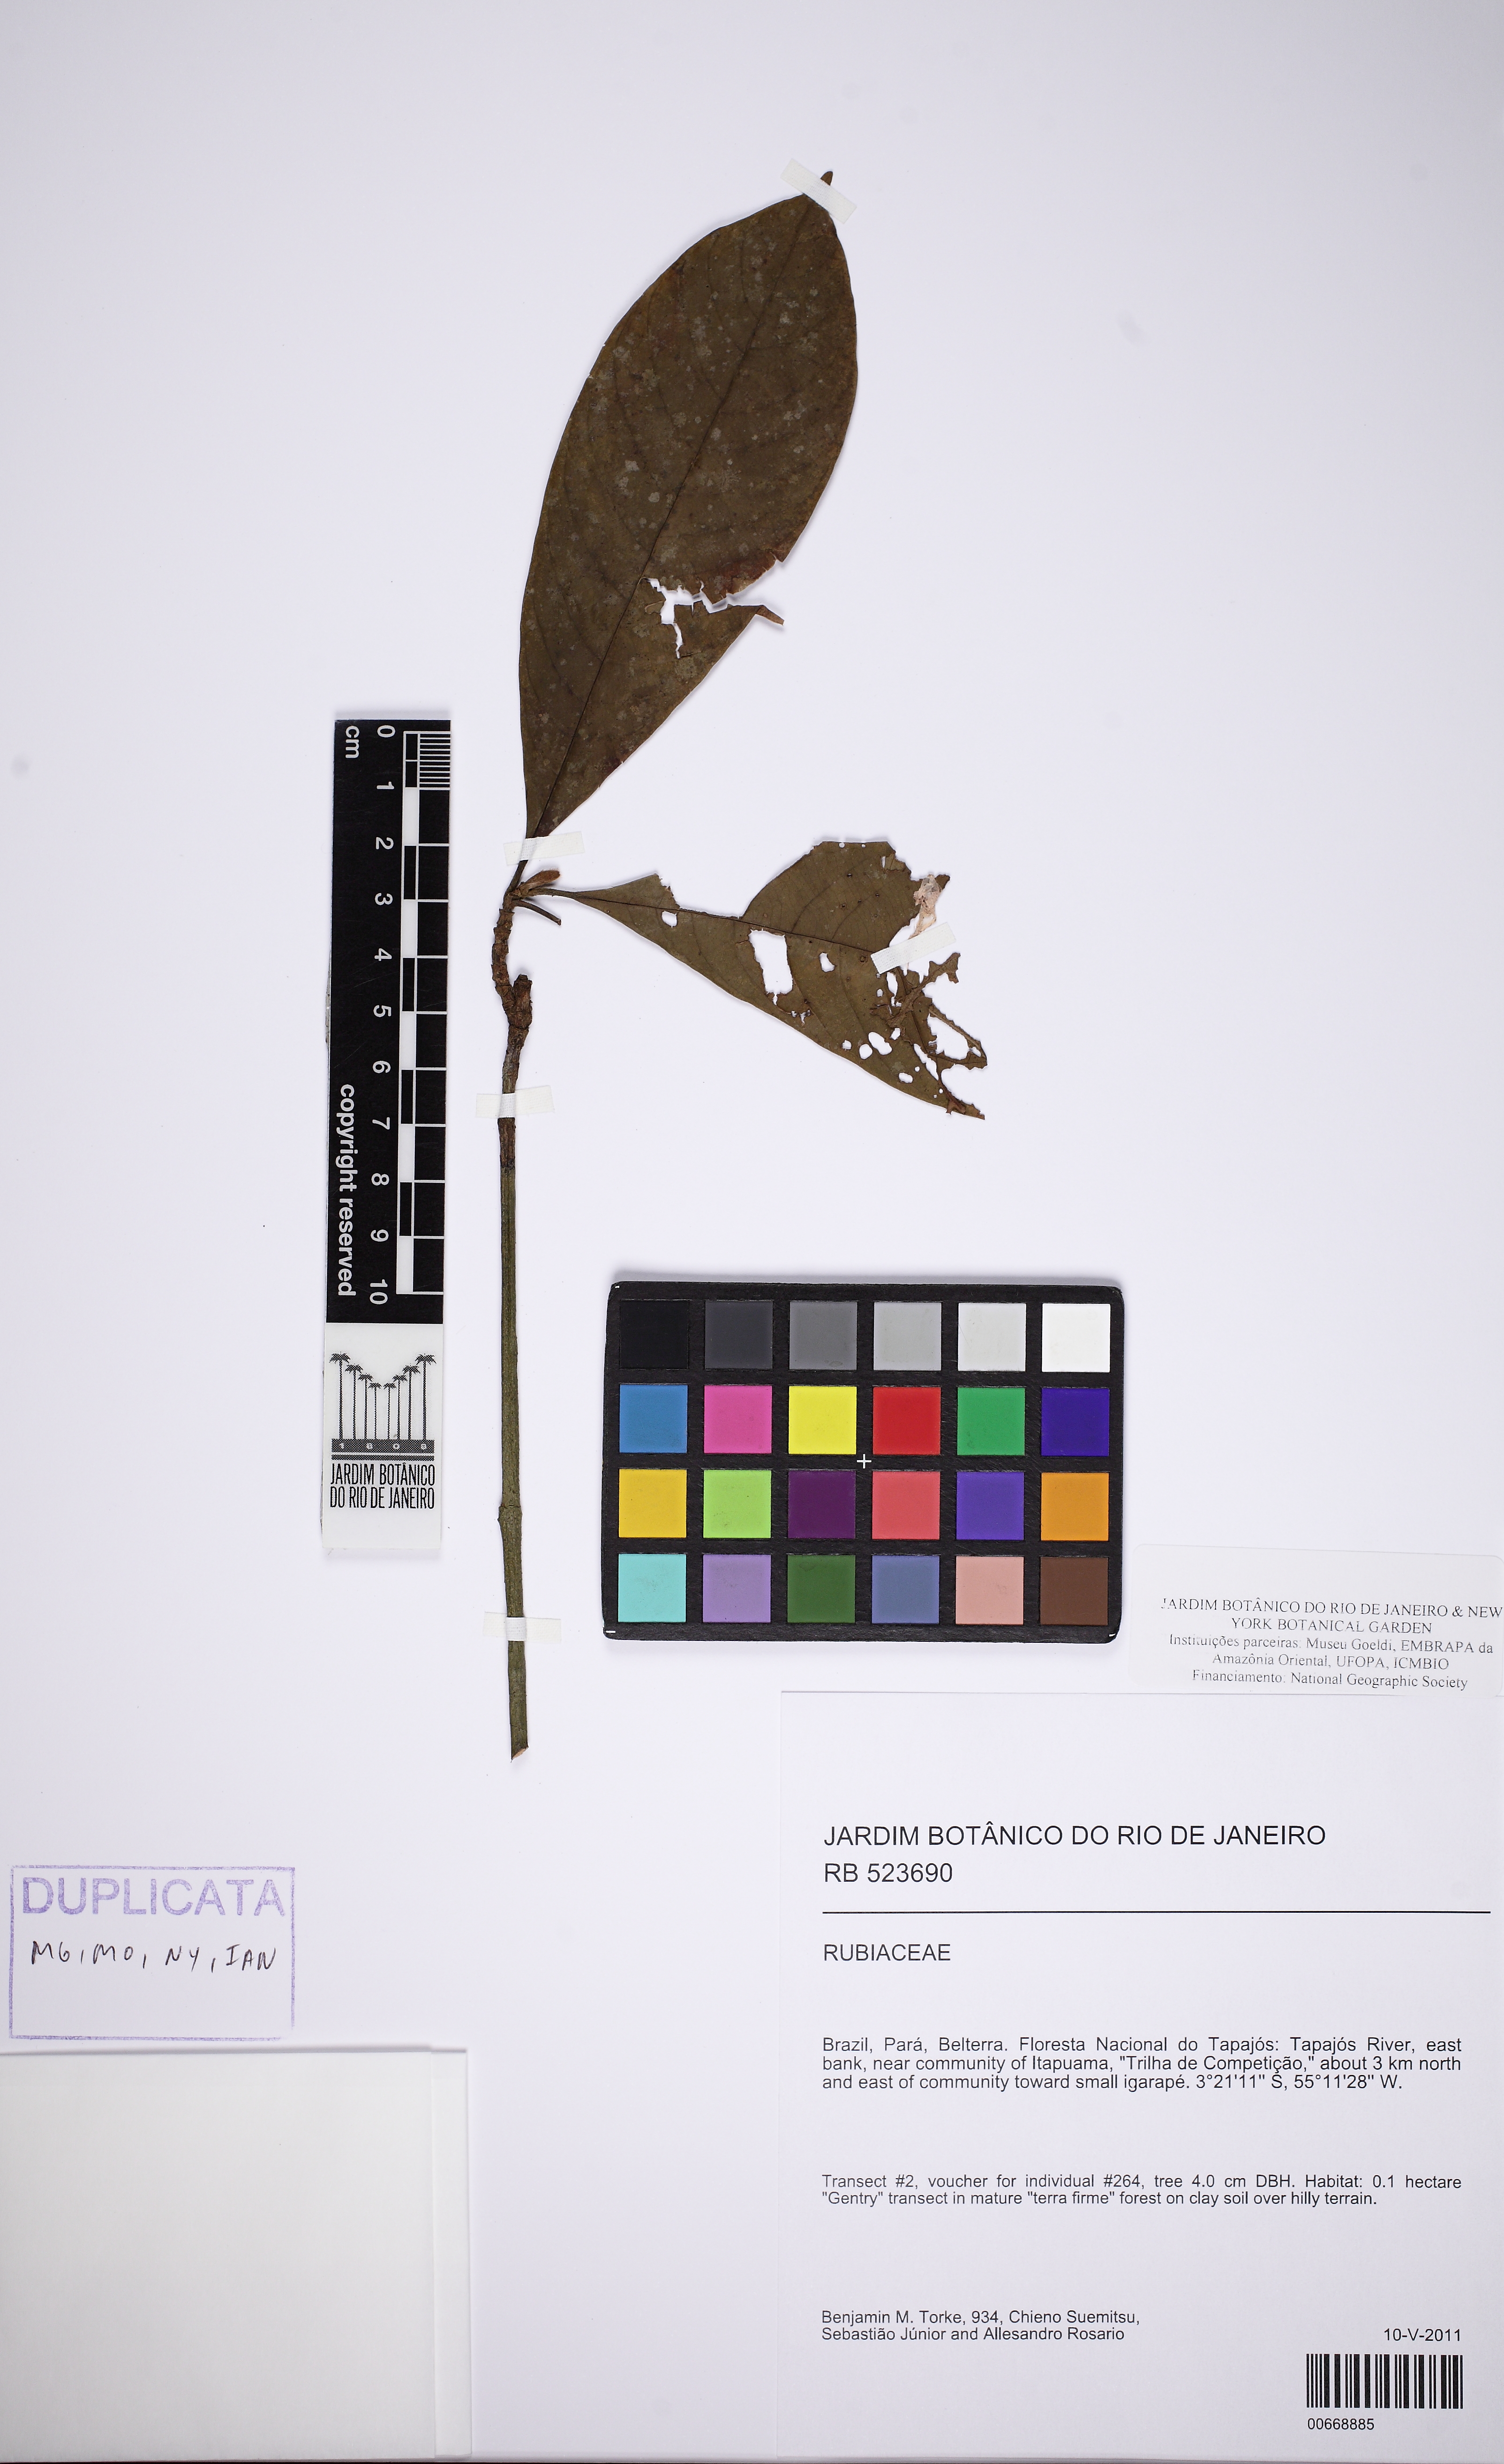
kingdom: Plantae
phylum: Tracheophyta
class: Magnoliopsida
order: Gentianales
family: Rubiaceae
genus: Amaioua
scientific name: Amaioua
